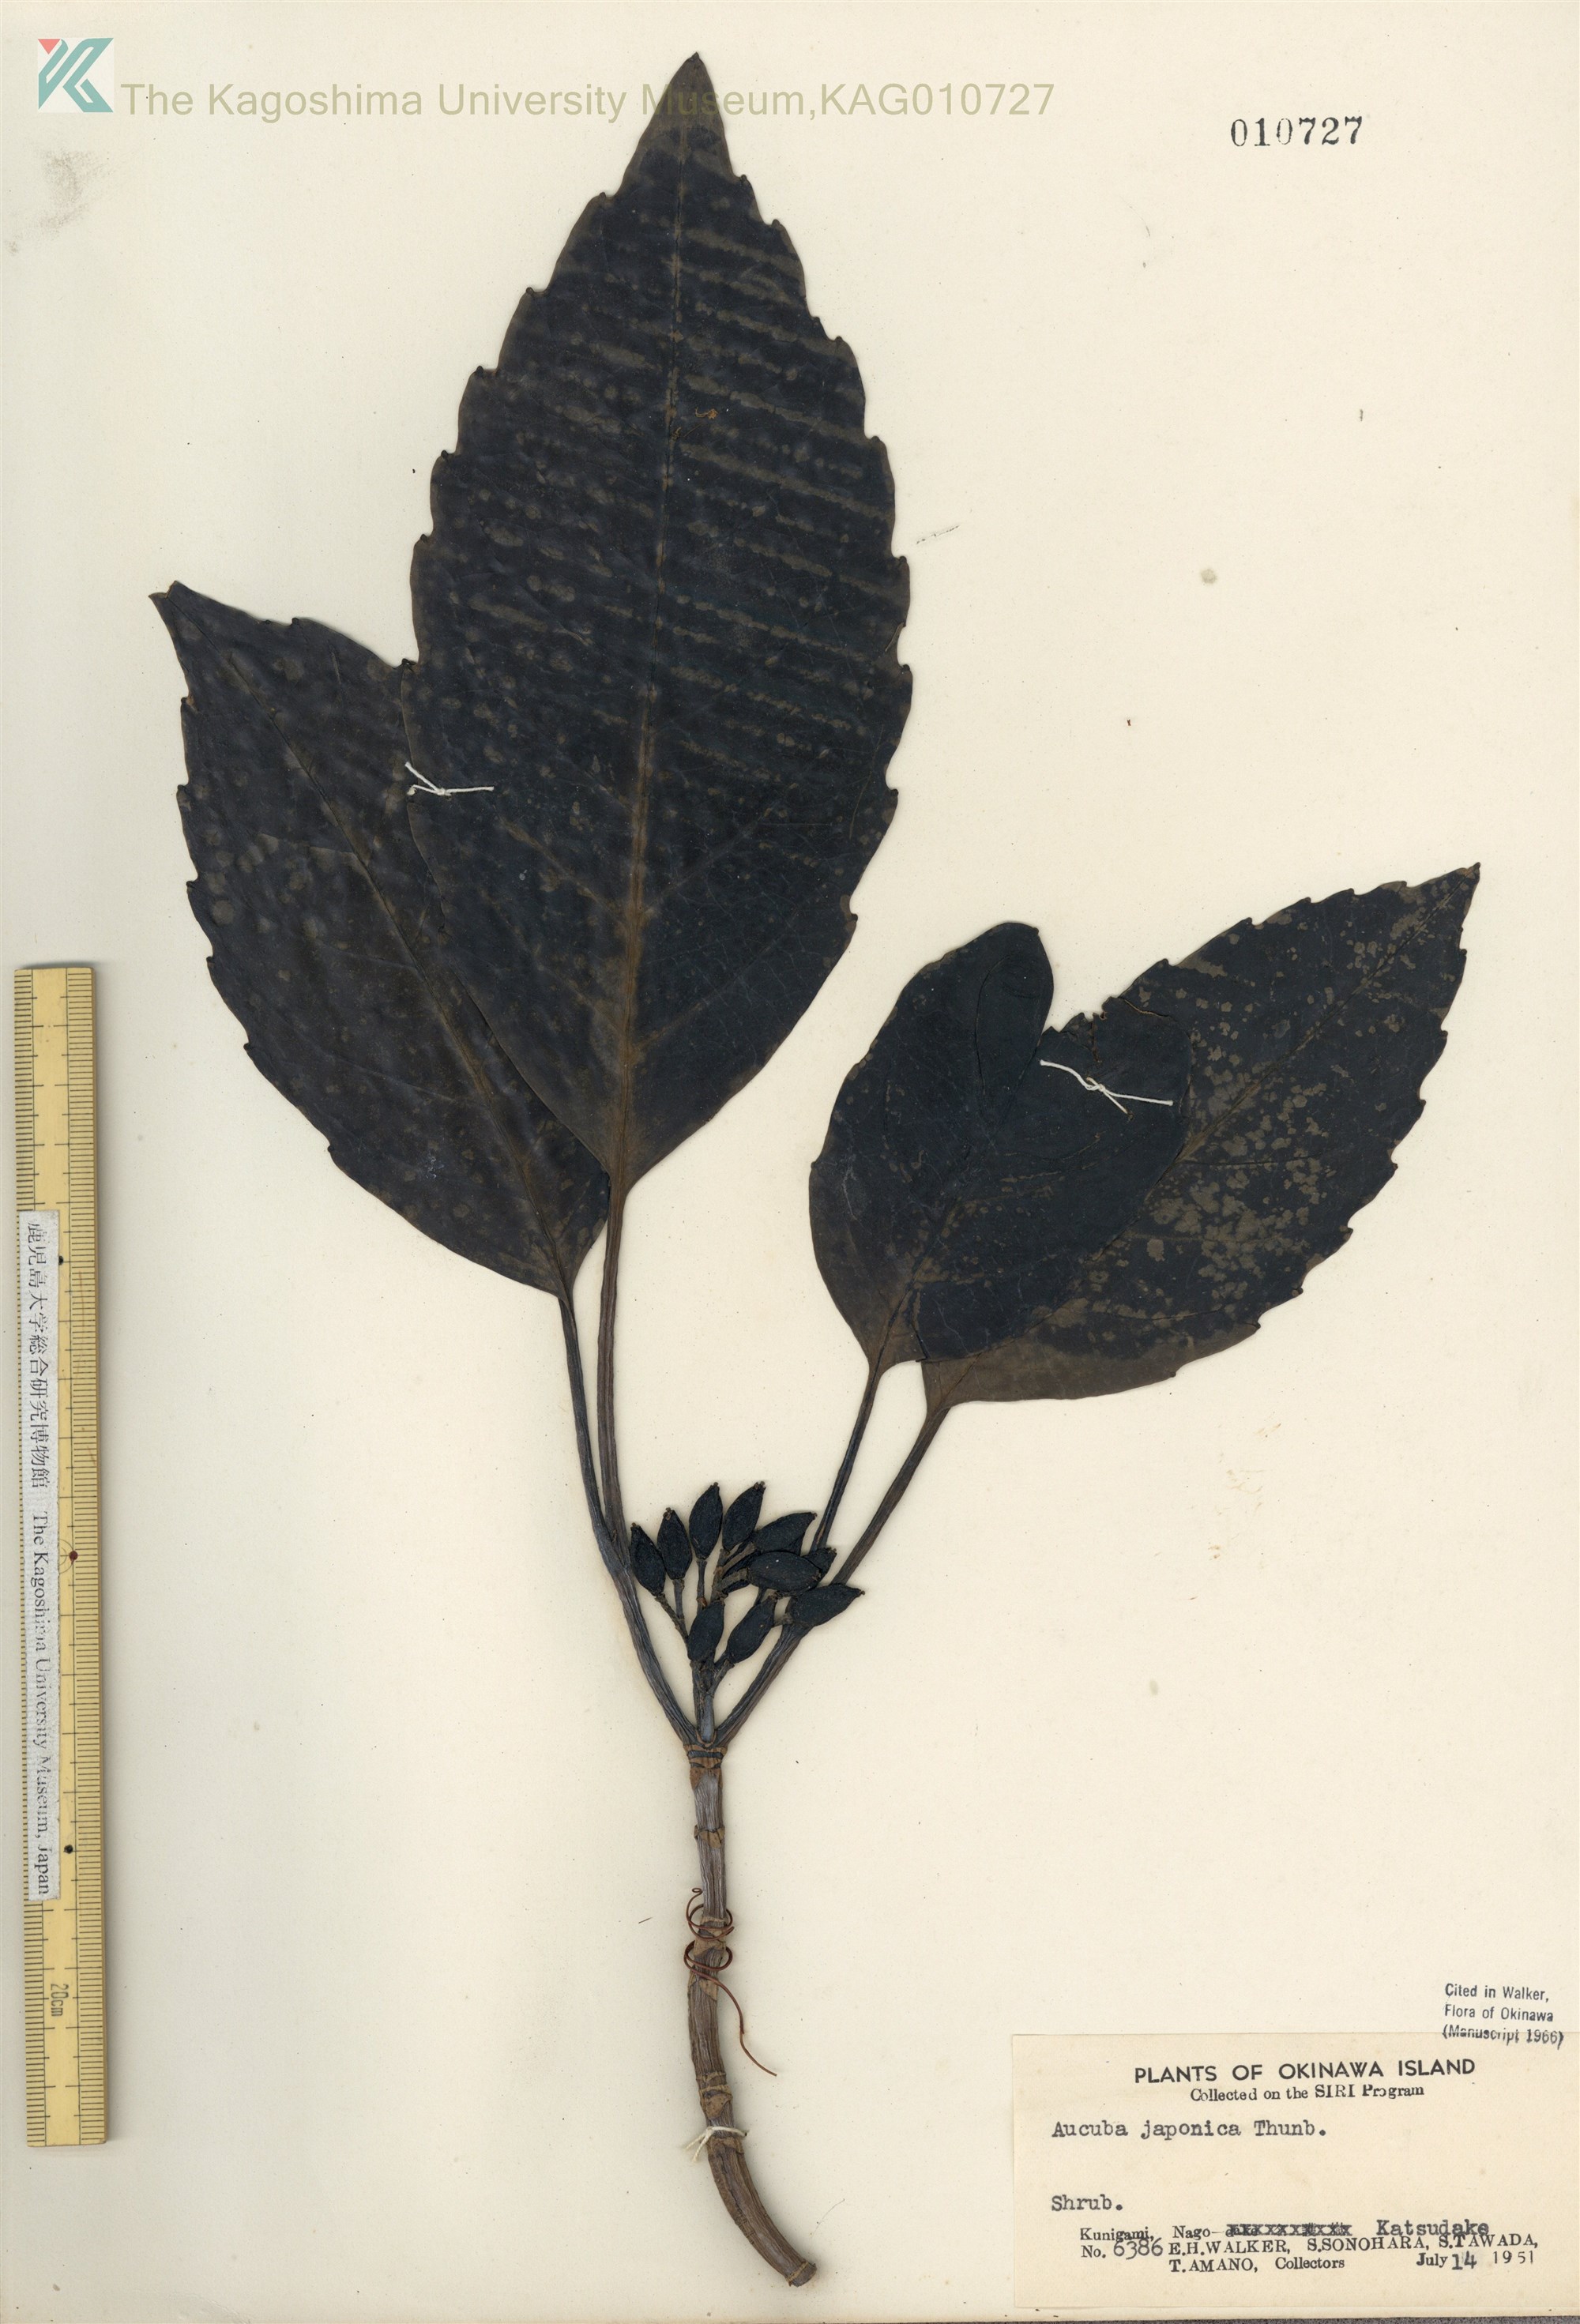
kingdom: Plantae
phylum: Tracheophyta
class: Magnoliopsida
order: Garryales
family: Garryaceae
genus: Aucuba
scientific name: Aucuba japonica
